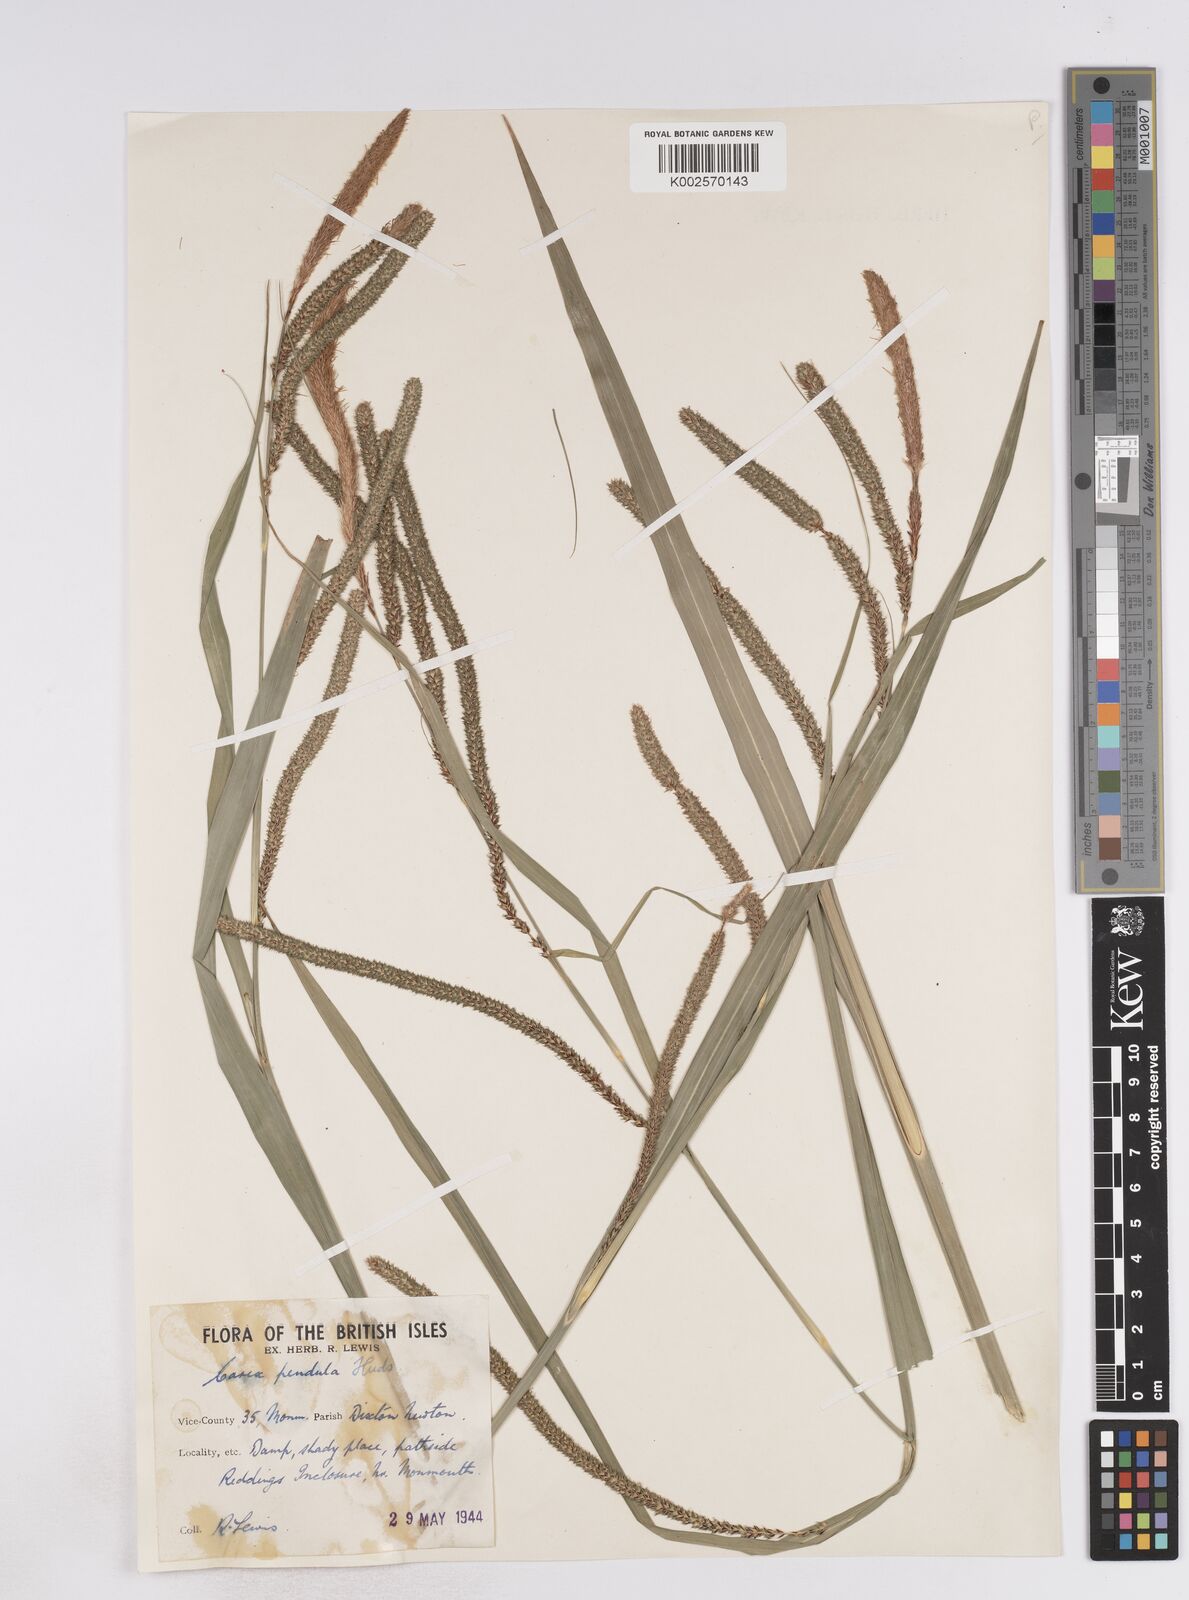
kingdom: Plantae
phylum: Tracheophyta
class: Liliopsida
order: Poales
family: Cyperaceae
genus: Carex
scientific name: Carex pendula
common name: Pendulous sedge
